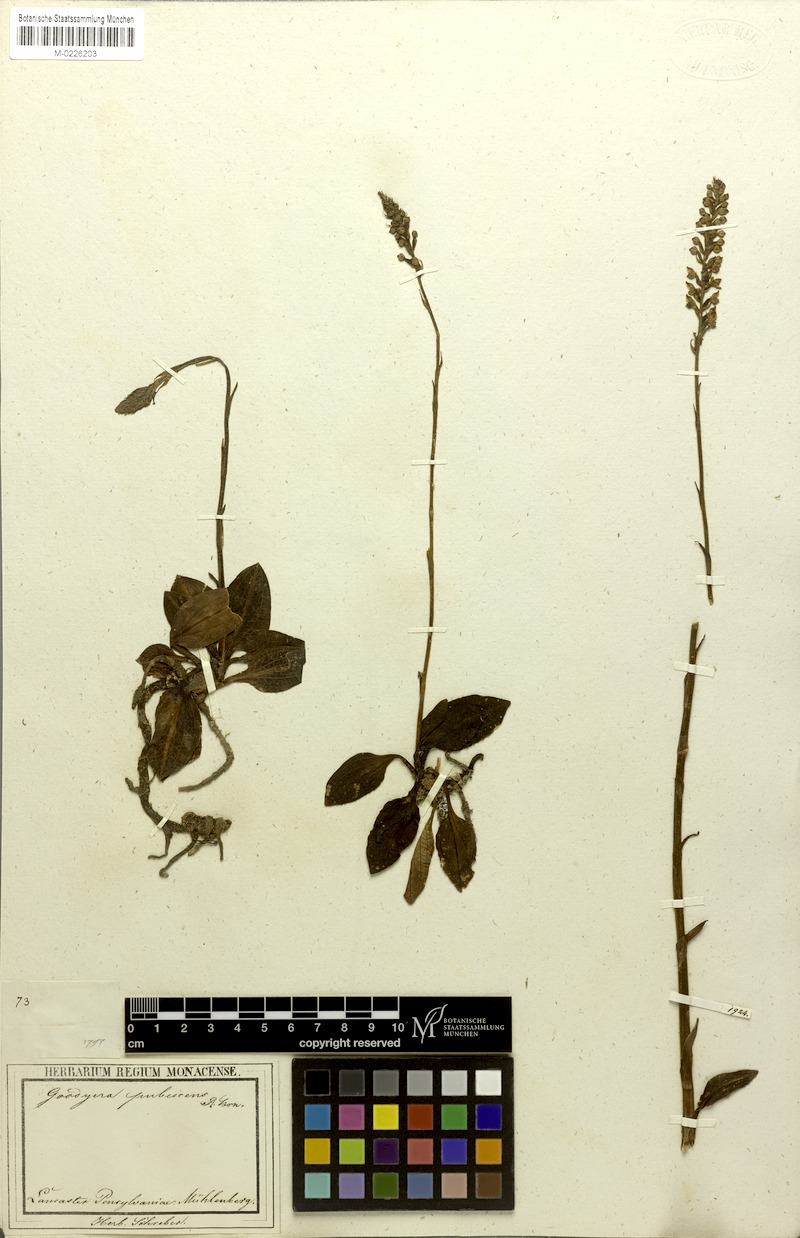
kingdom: Plantae
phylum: Tracheophyta
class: Liliopsida
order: Asparagales
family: Orchidaceae
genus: Goodyera
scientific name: Goodyera pubescens
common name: Downy rattlesnake-plantain
